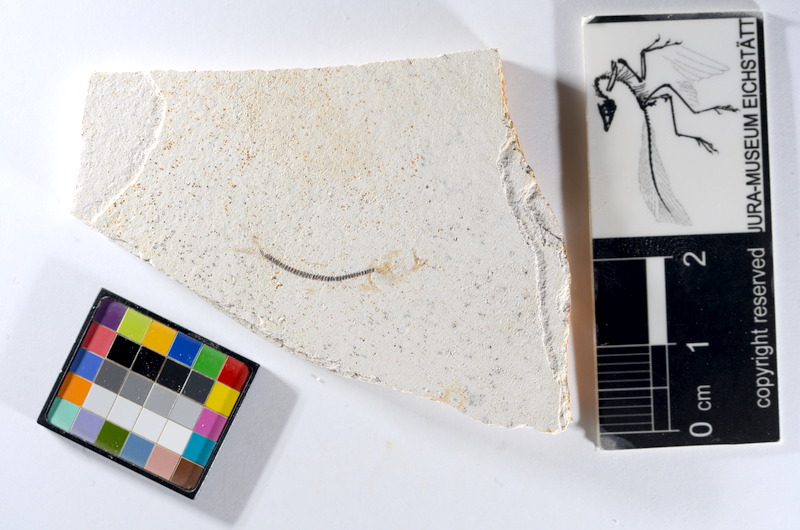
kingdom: Animalia
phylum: Chordata
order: Salmoniformes
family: Orthogonikleithridae
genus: Orthogonikleithrus
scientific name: Orthogonikleithrus hoelli
